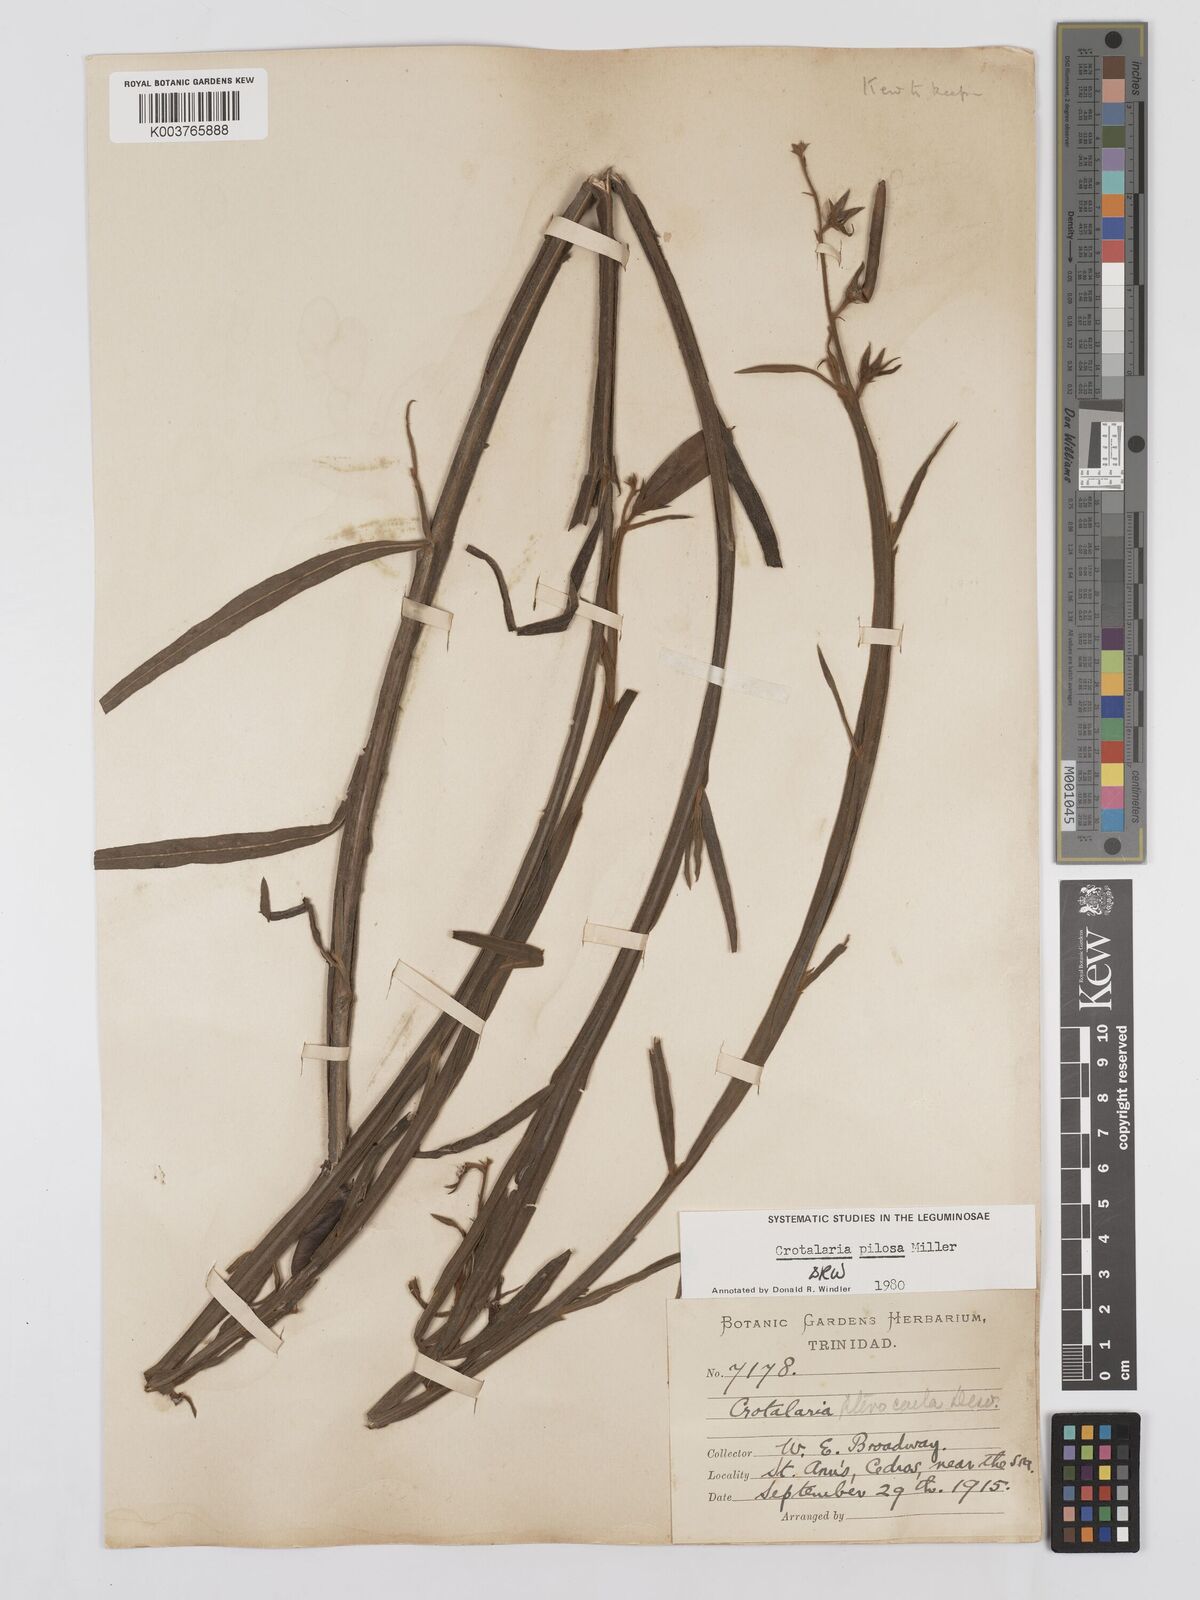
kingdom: Plantae
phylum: Tracheophyta
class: Magnoliopsida
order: Fabales
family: Fabaceae
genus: Crotalaria
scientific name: Crotalaria pilosa
